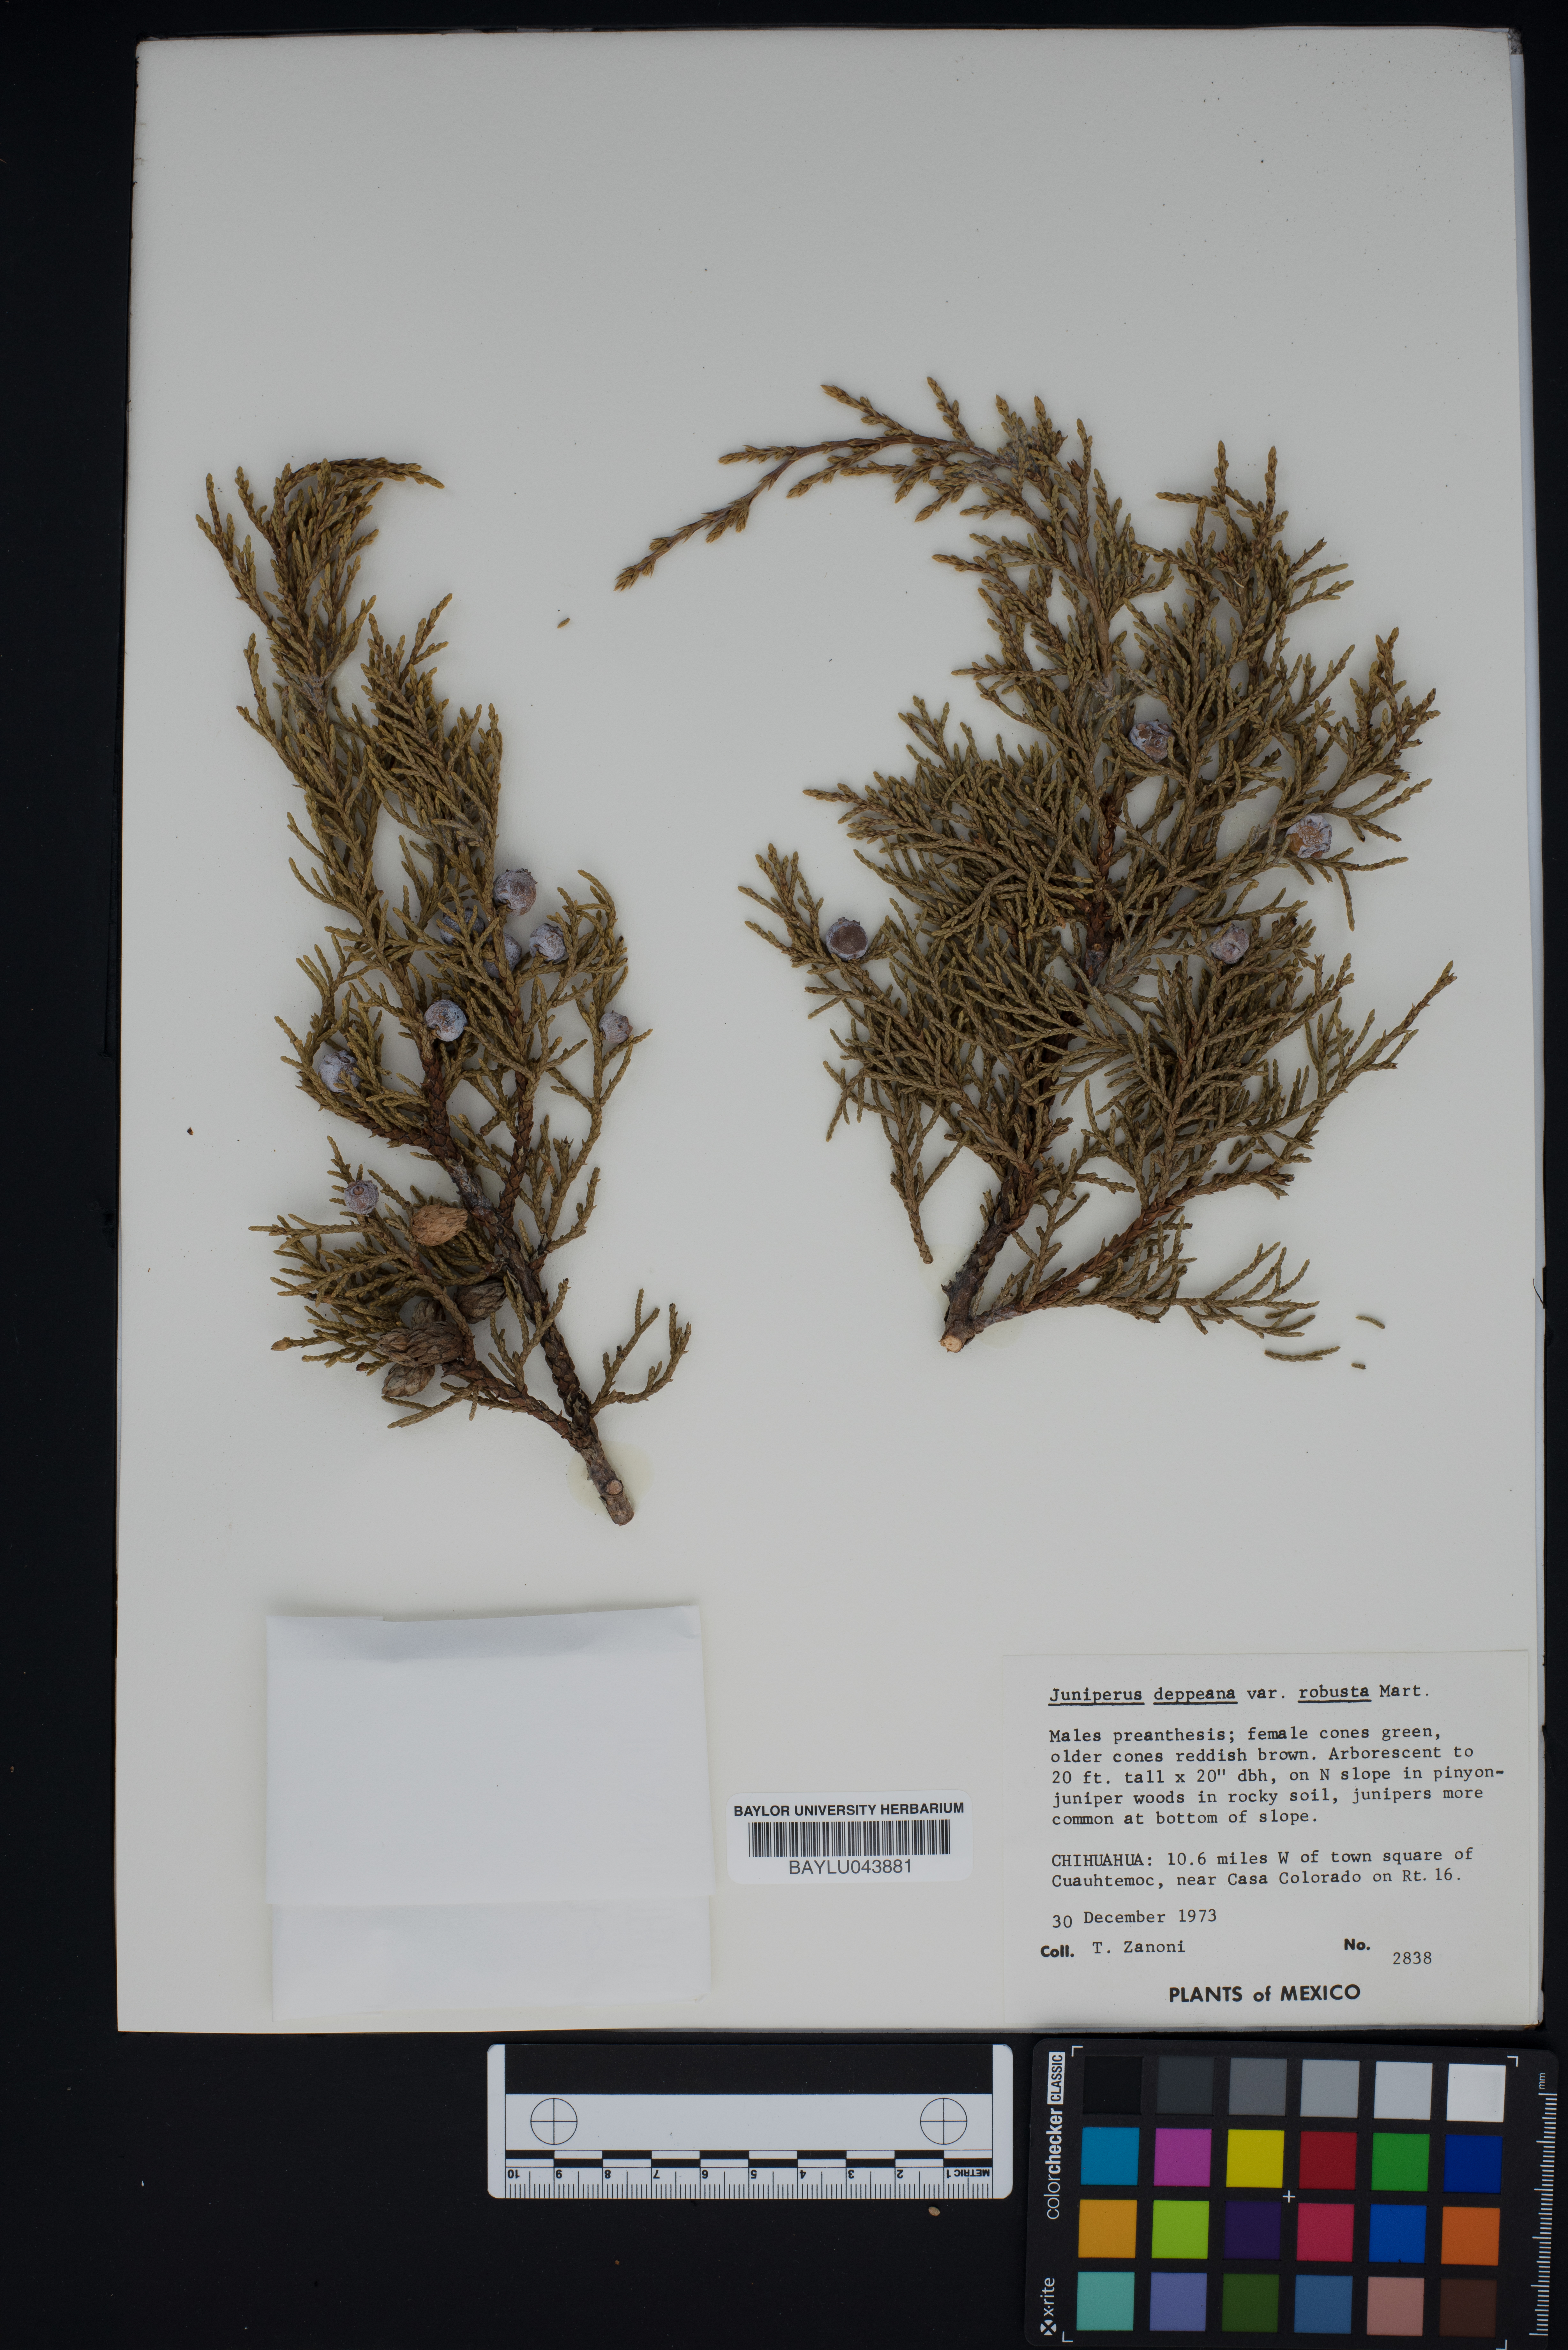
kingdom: Plantae
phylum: Tracheophyta
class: Pinopsida
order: Pinales
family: Cupressaceae
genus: Juniperus
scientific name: Juniperus deppeana
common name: Alligator juniper
